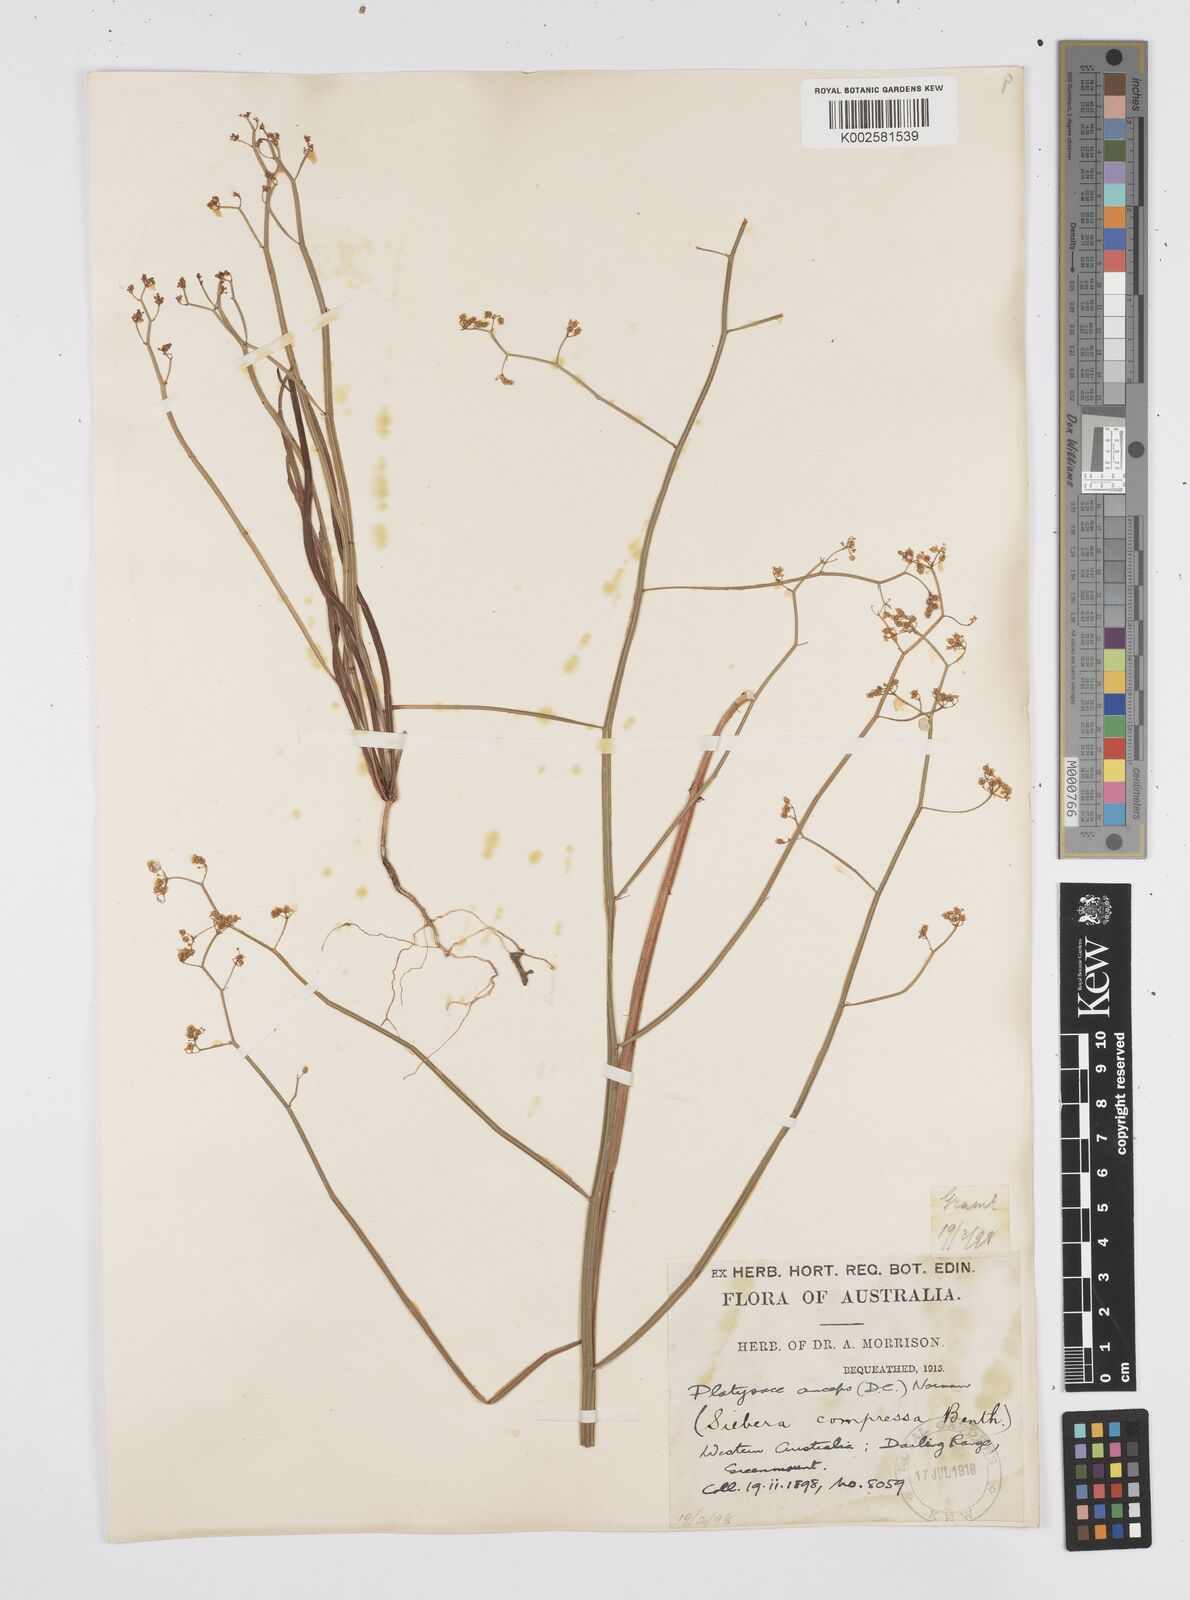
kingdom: Plantae
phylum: Tracheophyta
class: Magnoliopsida
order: Apiales
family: Apiaceae
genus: Centella
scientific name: Centella
